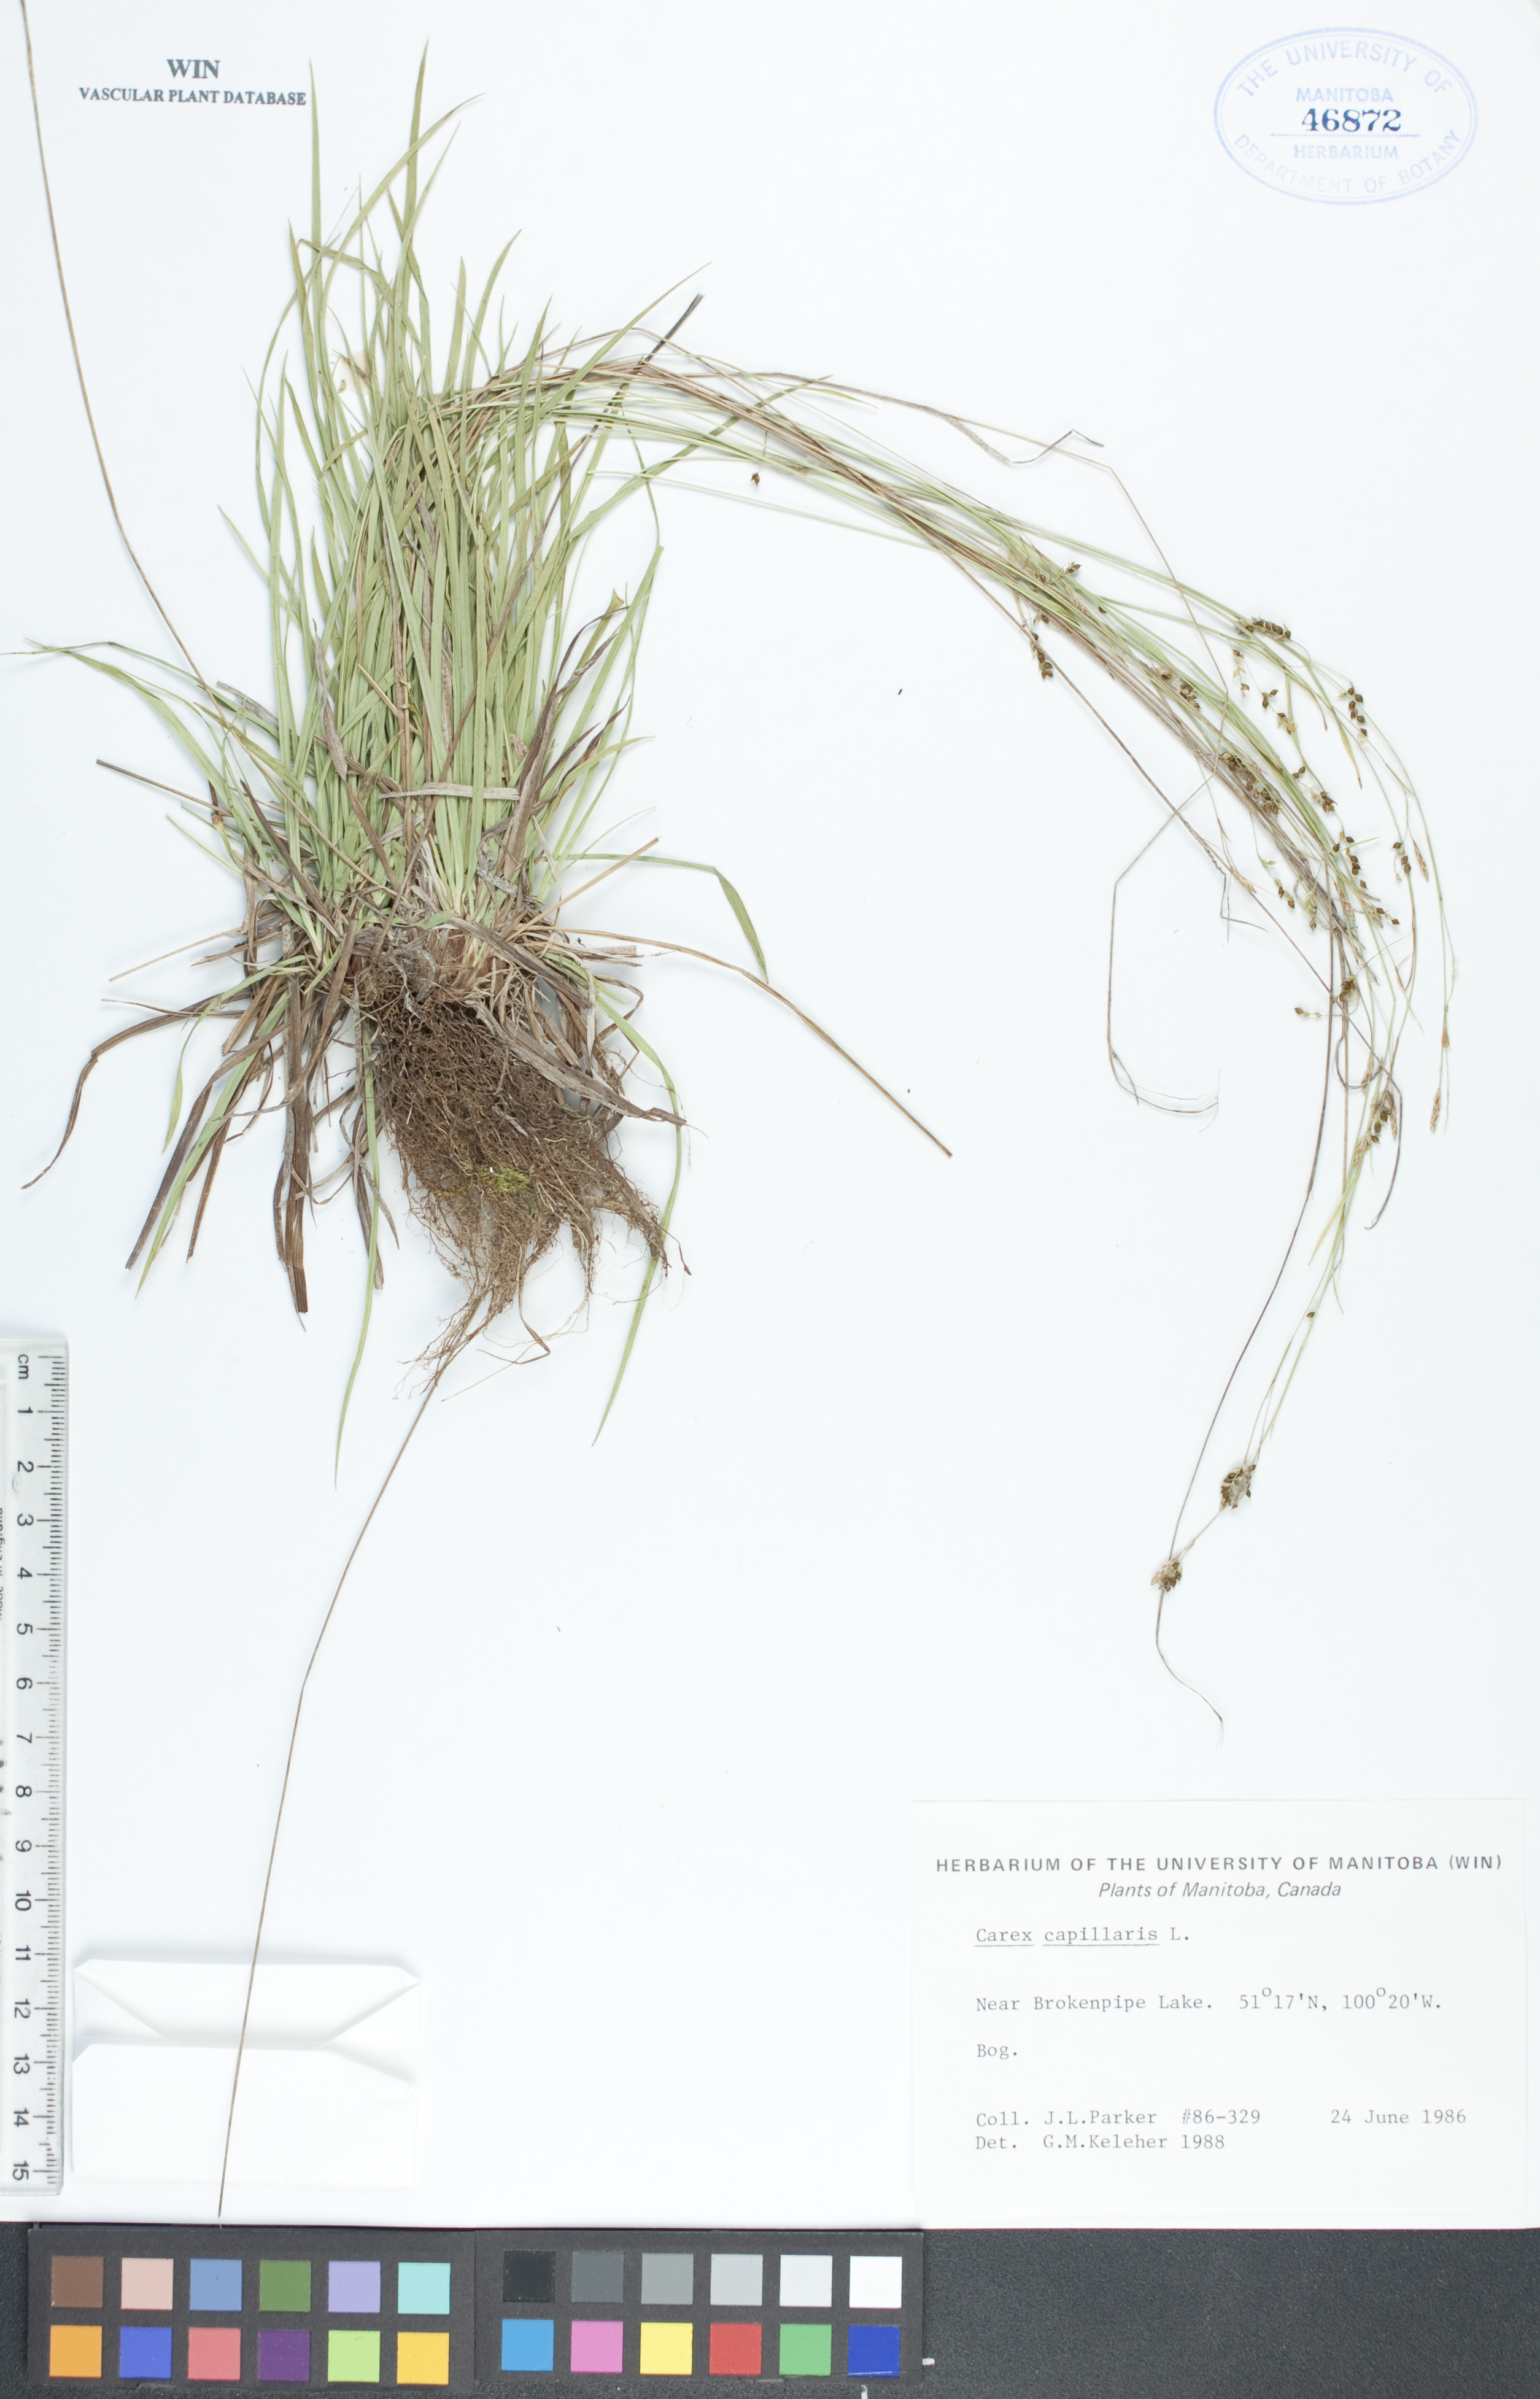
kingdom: Plantae
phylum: Tracheophyta
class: Liliopsida
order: Poales
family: Cyperaceae
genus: Carex
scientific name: Carex capillaris
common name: Hair sedge
